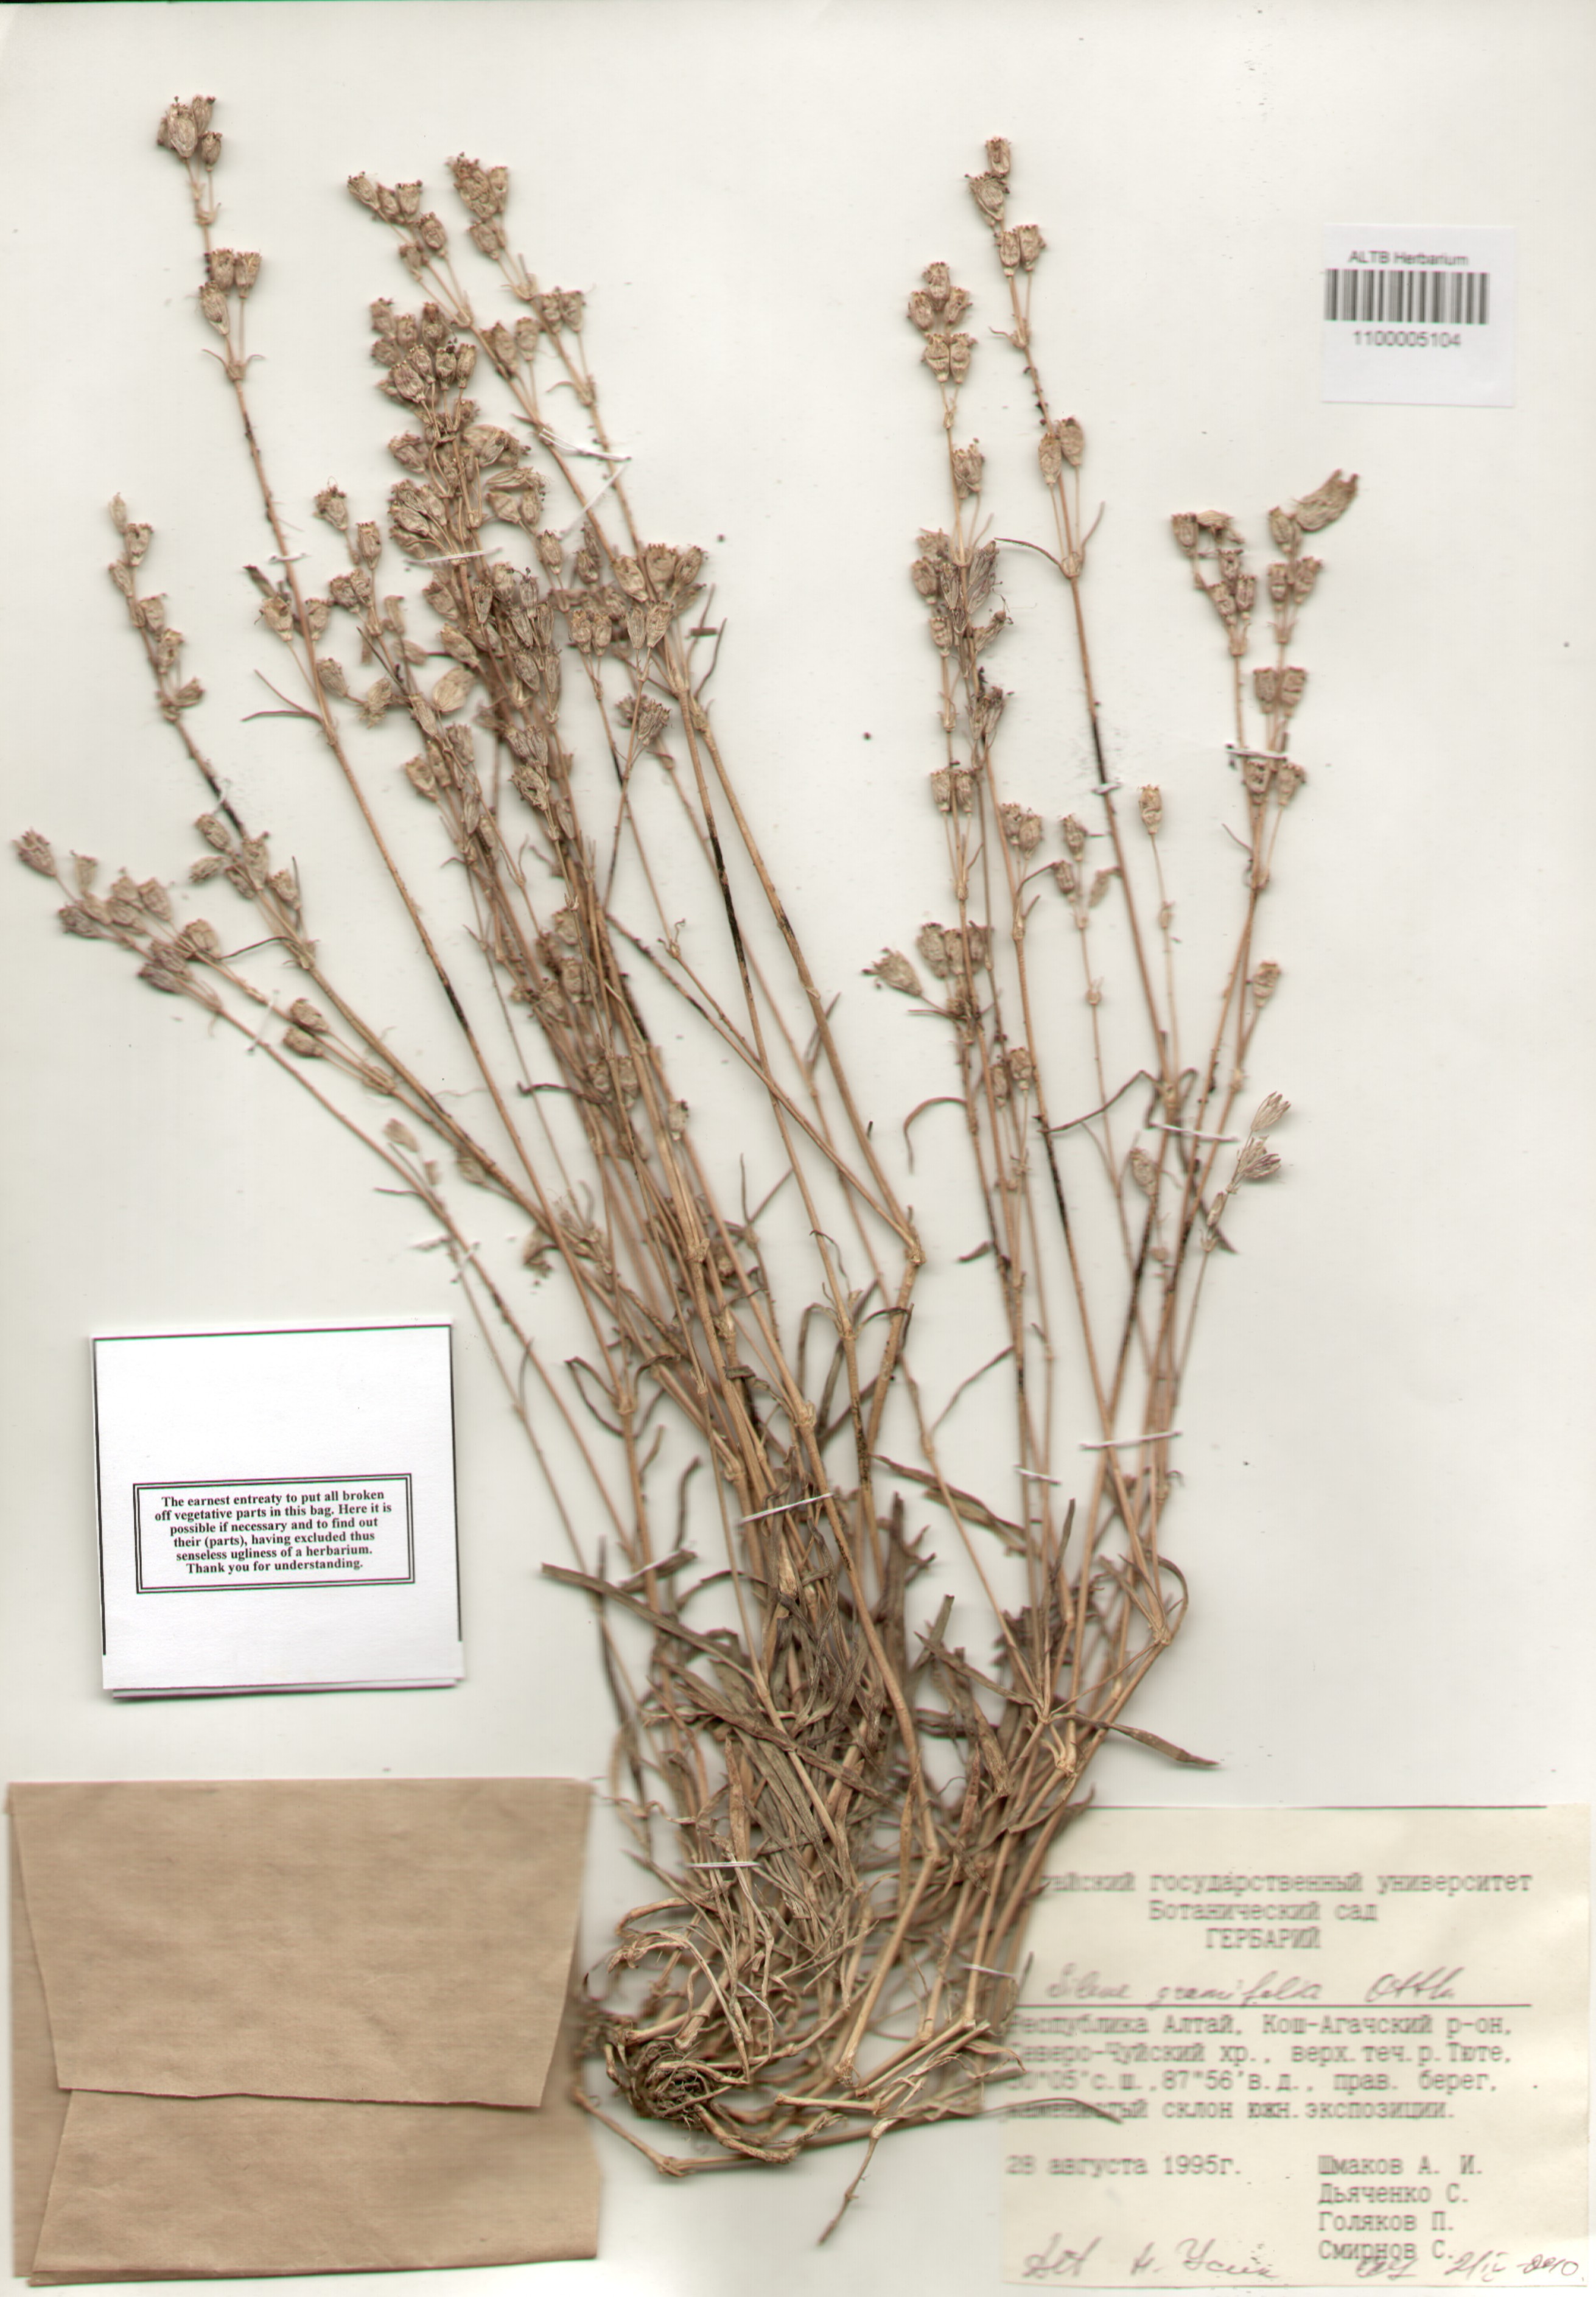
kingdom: Plantae
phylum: Tracheophyta
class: Magnoliopsida
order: Caryophyllales
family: Caryophyllaceae
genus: Silene
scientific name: Silene graminifolia
